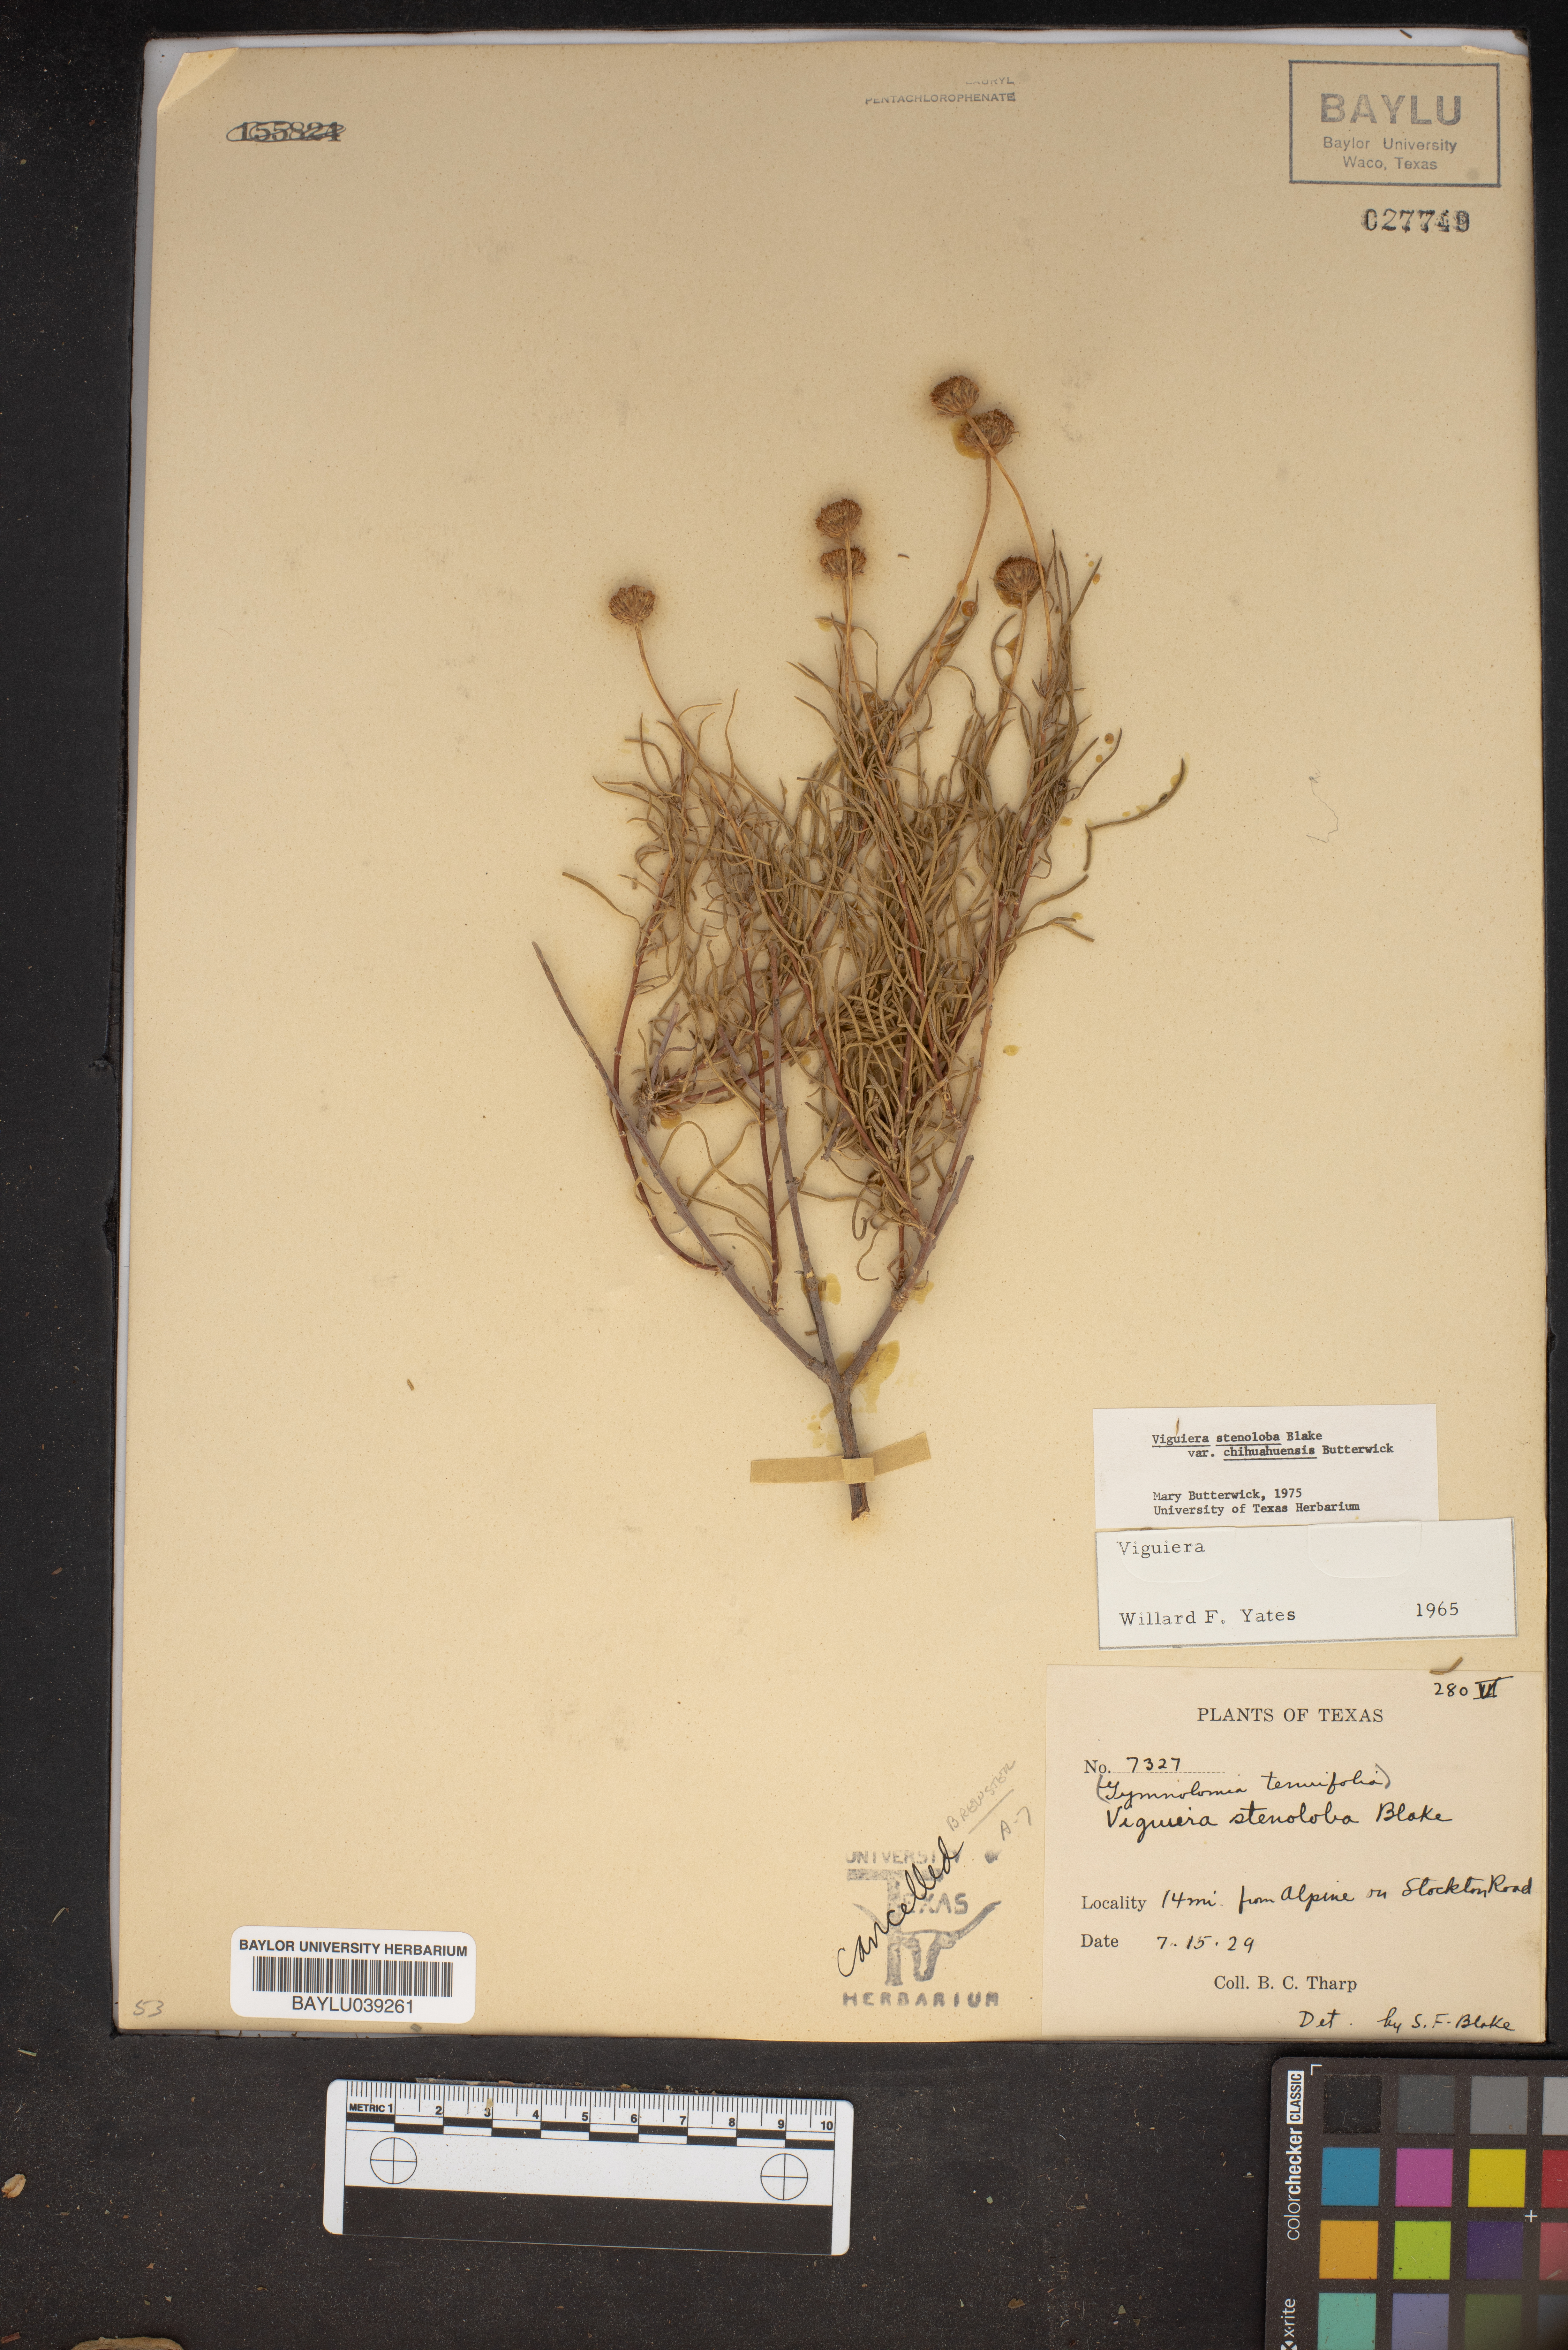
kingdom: Plantae
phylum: Tracheophyta
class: Magnoliopsida
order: Asterales
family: Asteraceae
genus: Sidneya
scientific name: Sidneya tenuifolia
